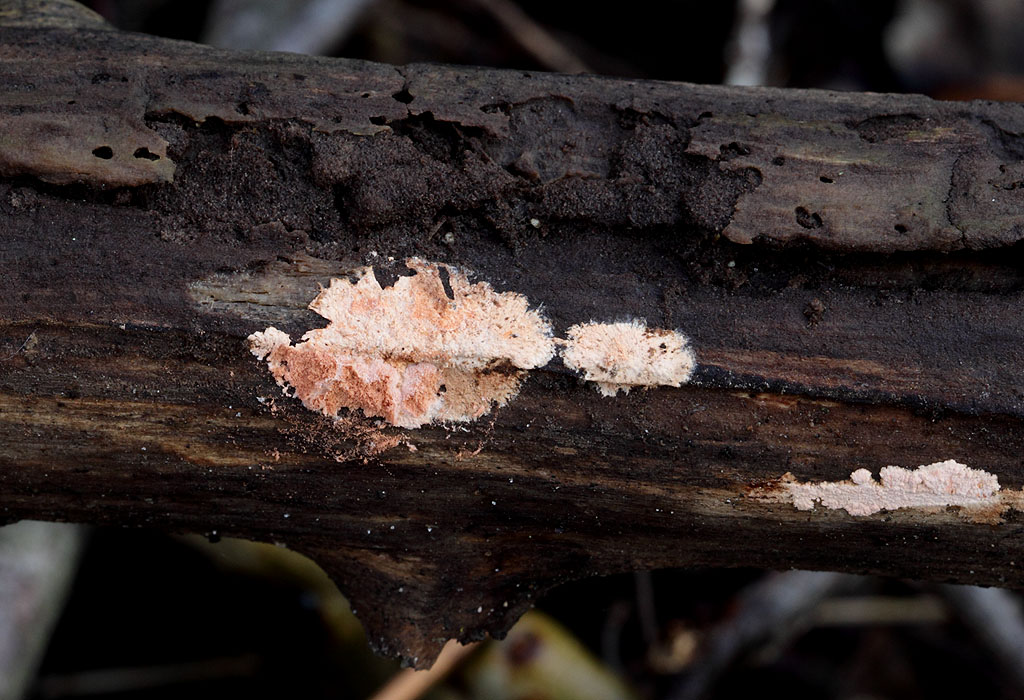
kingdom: Fungi
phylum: Basidiomycota
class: Agaricomycetes
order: Corticiales
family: Corticiaceae
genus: Corticium
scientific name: Corticium roseum
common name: rosa barkskind
